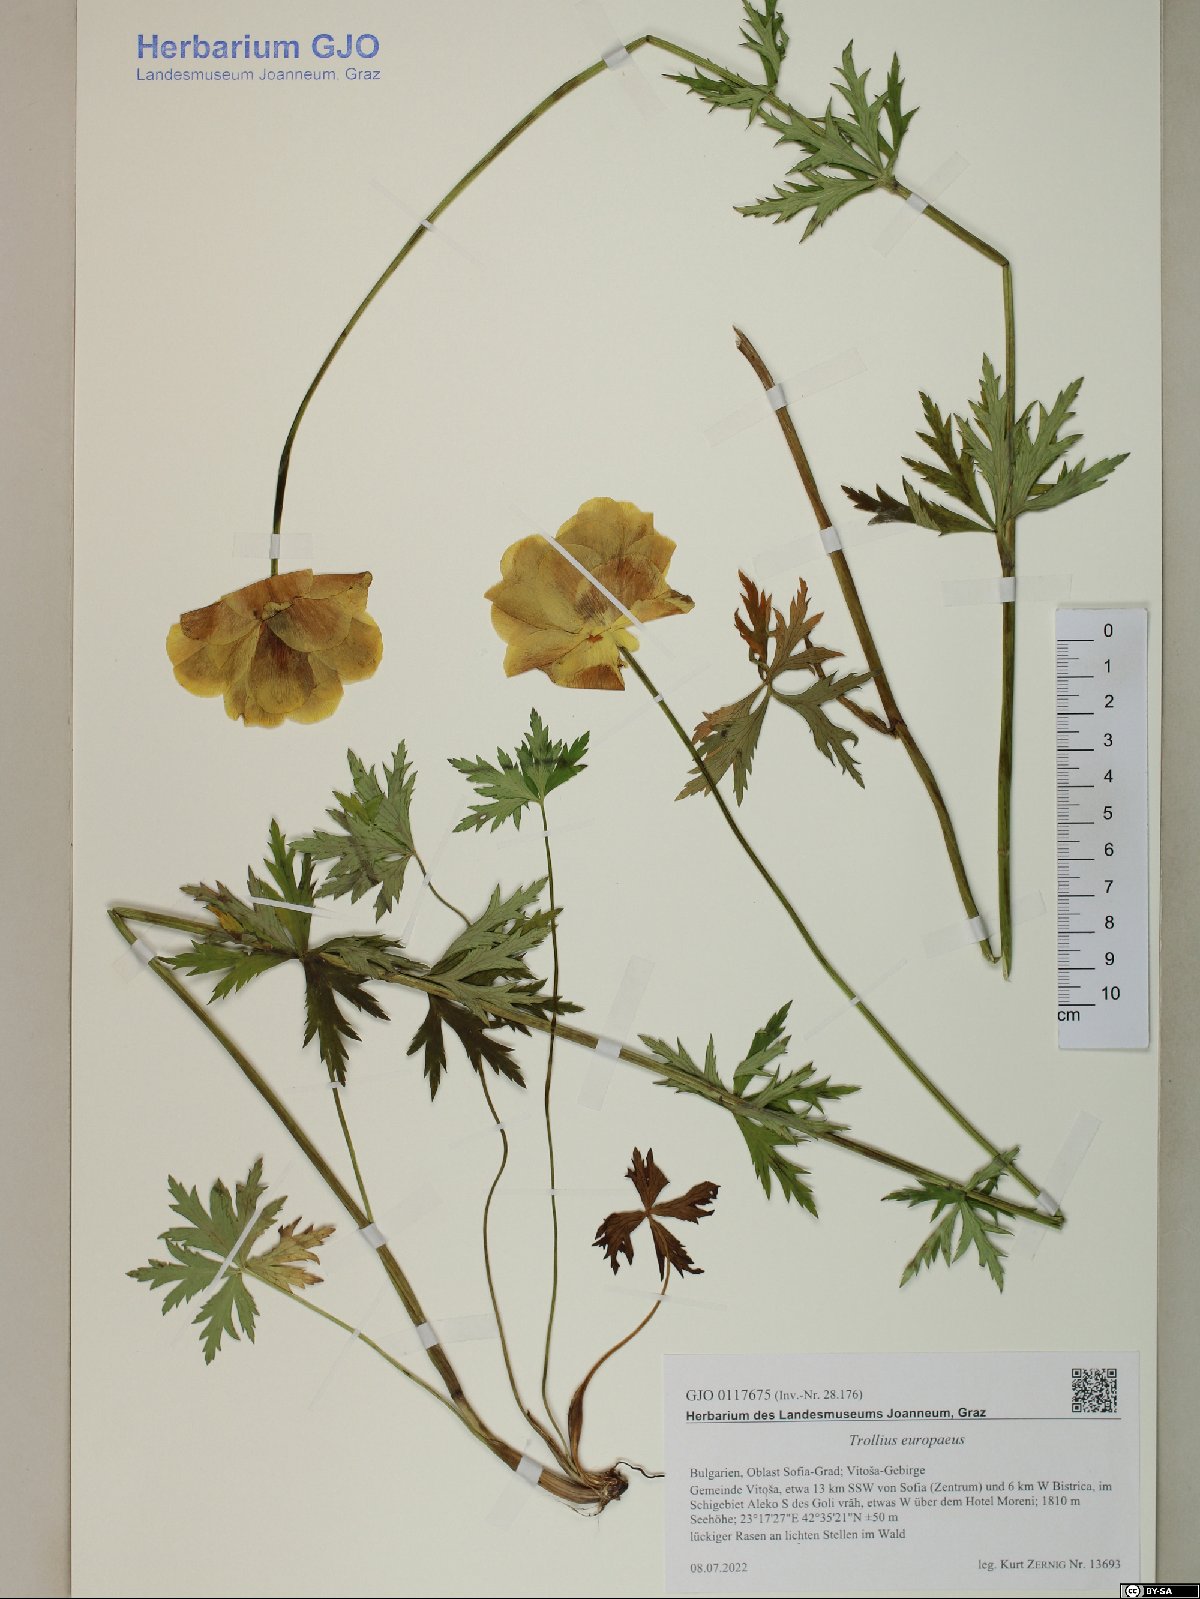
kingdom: Plantae
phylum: Tracheophyta
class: Magnoliopsida
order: Ranunculales
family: Ranunculaceae
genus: Trollius
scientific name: Trollius europaeus
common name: European globeflower
